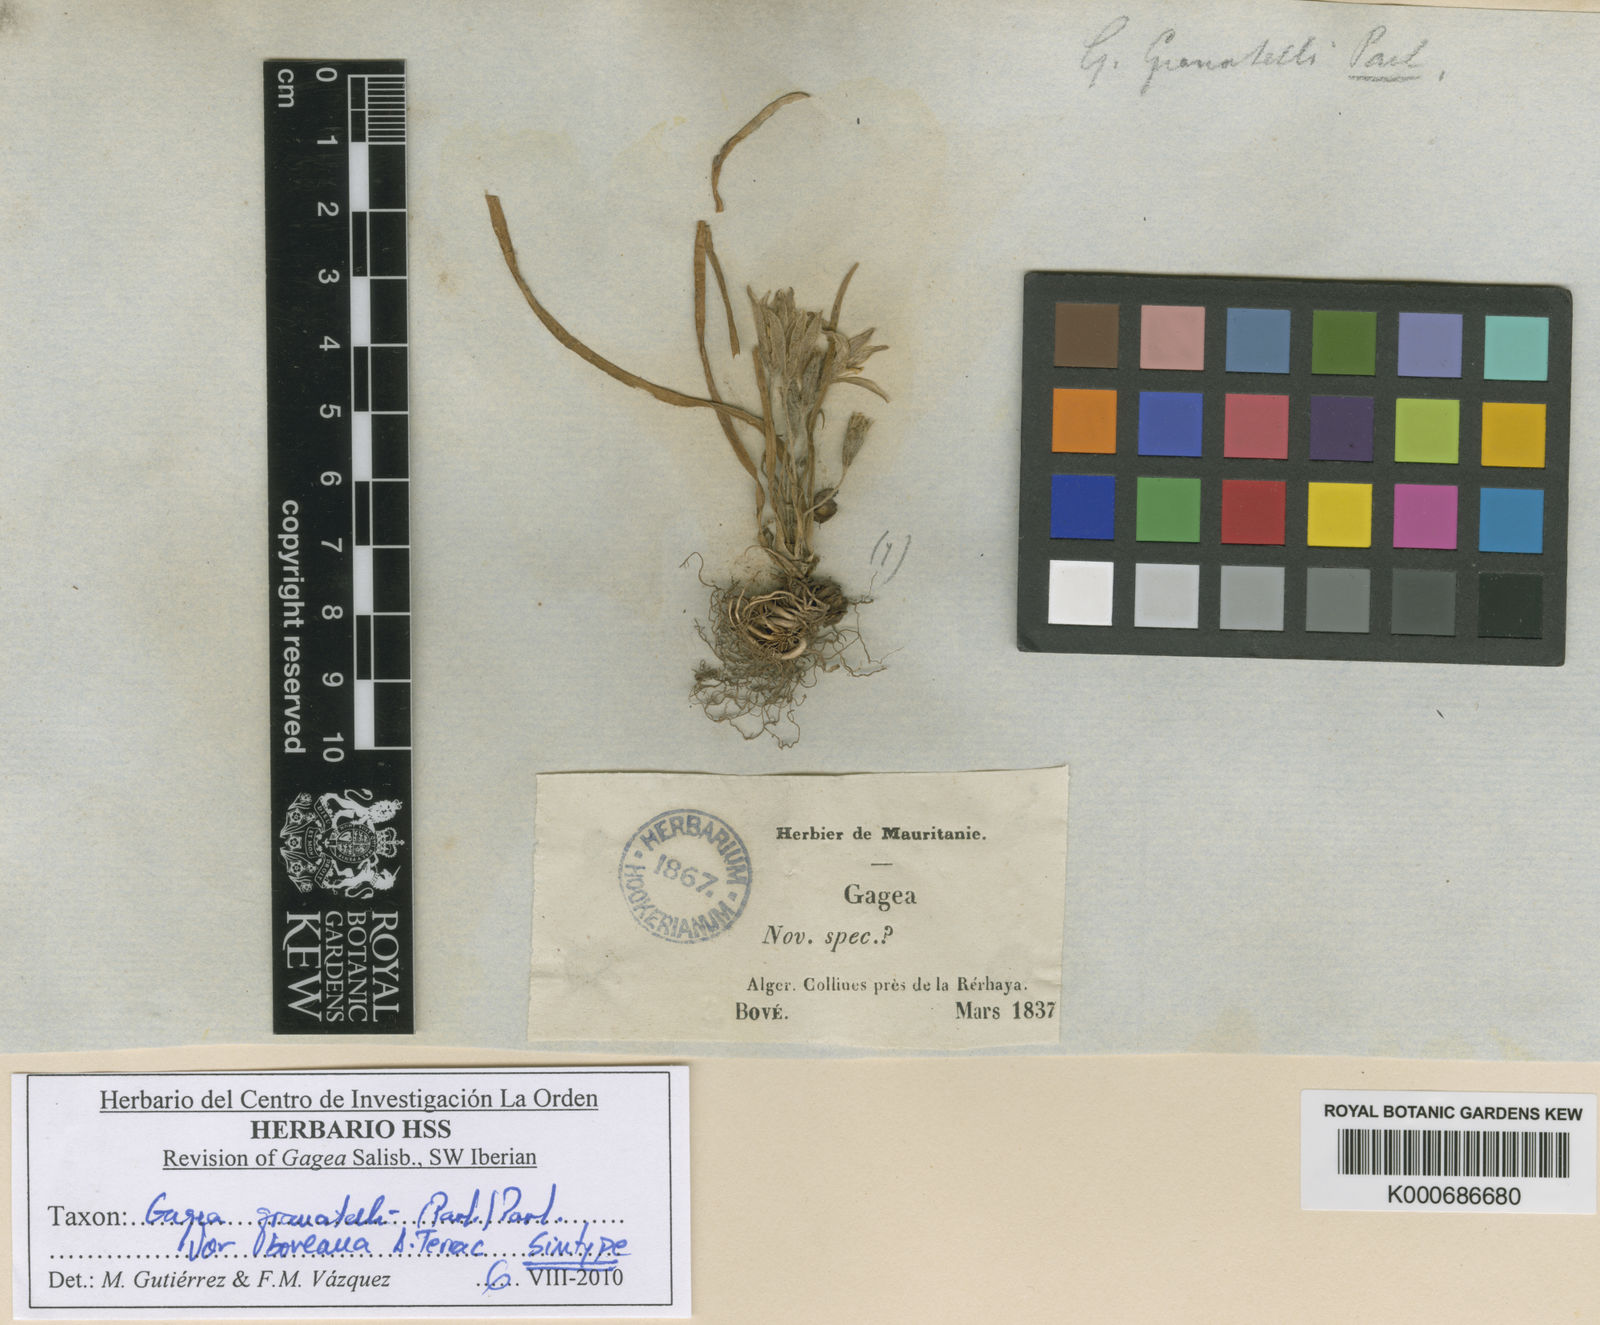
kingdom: Plantae
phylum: Tracheophyta
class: Liliopsida
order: Liliales
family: Liliaceae
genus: Gagea
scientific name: Gagea granatellii
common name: Granatelli’s gagea
